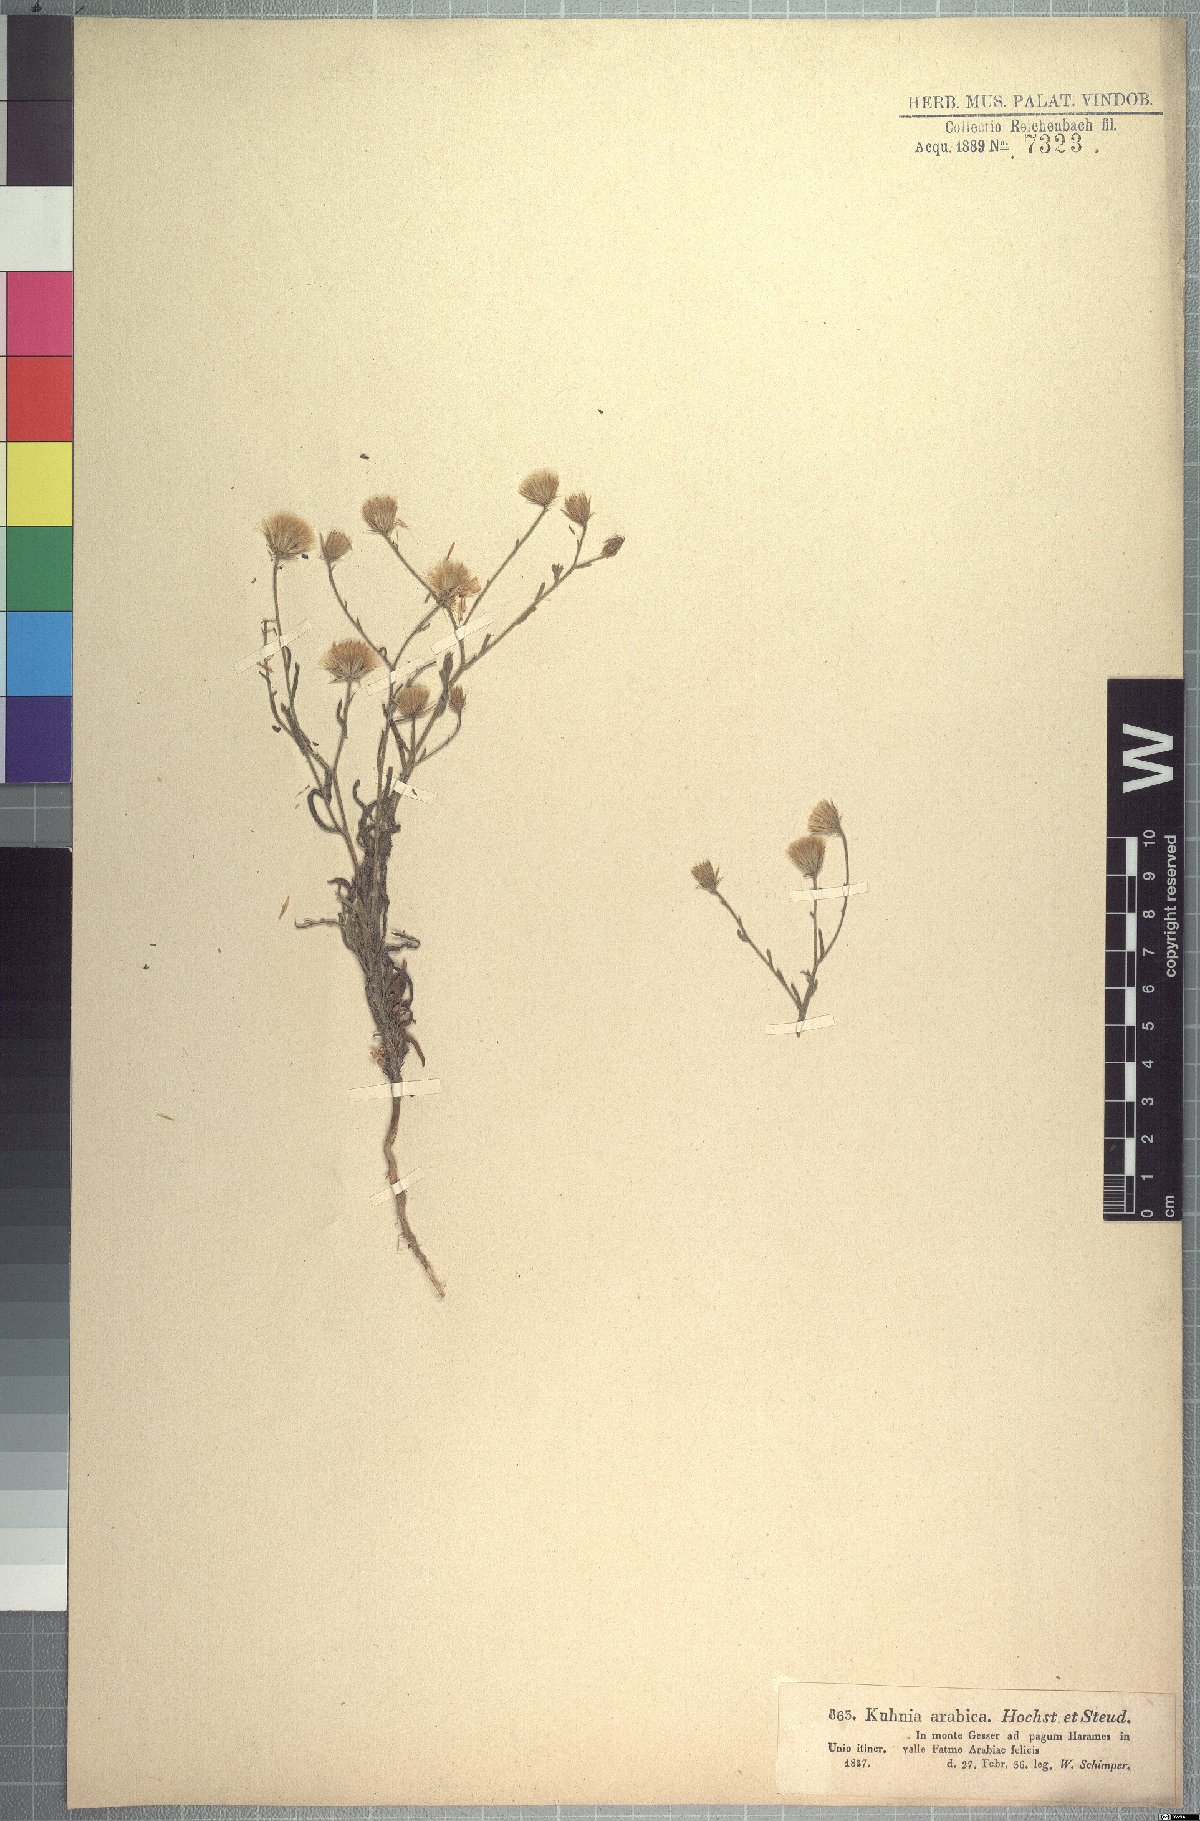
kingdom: Plantae
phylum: Tracheophyta
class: Magnoliopsida
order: Asterales
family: Asteraceae
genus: Pegolettia
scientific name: Pegolettia senegalensis
